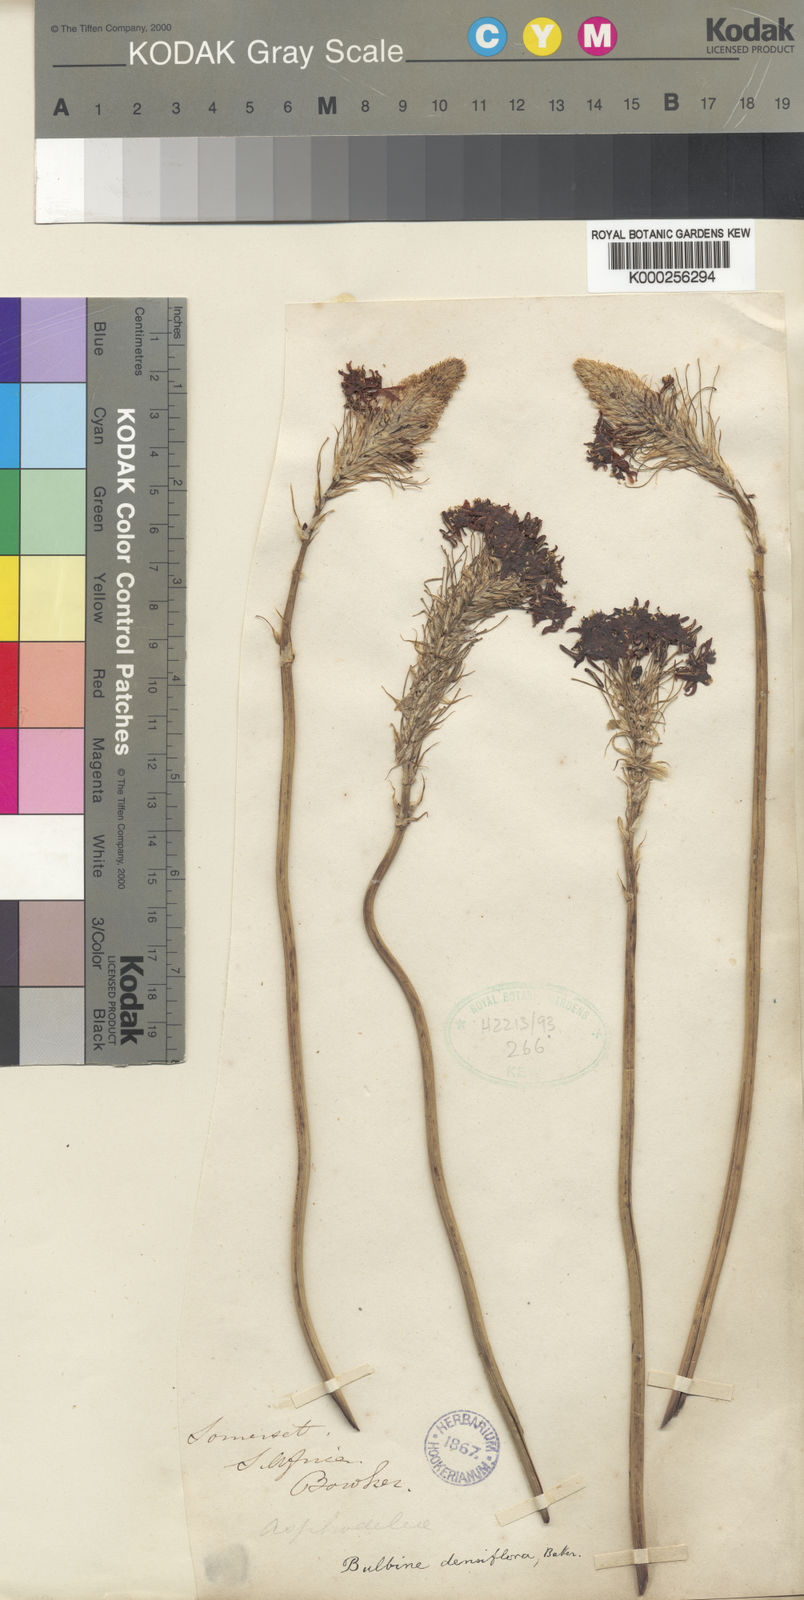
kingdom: Plantae
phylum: Tracheophyta
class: Liliopsida
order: Asparagales
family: Asphodelaceae
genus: Bulbine
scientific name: Bulbine narcissifolia
